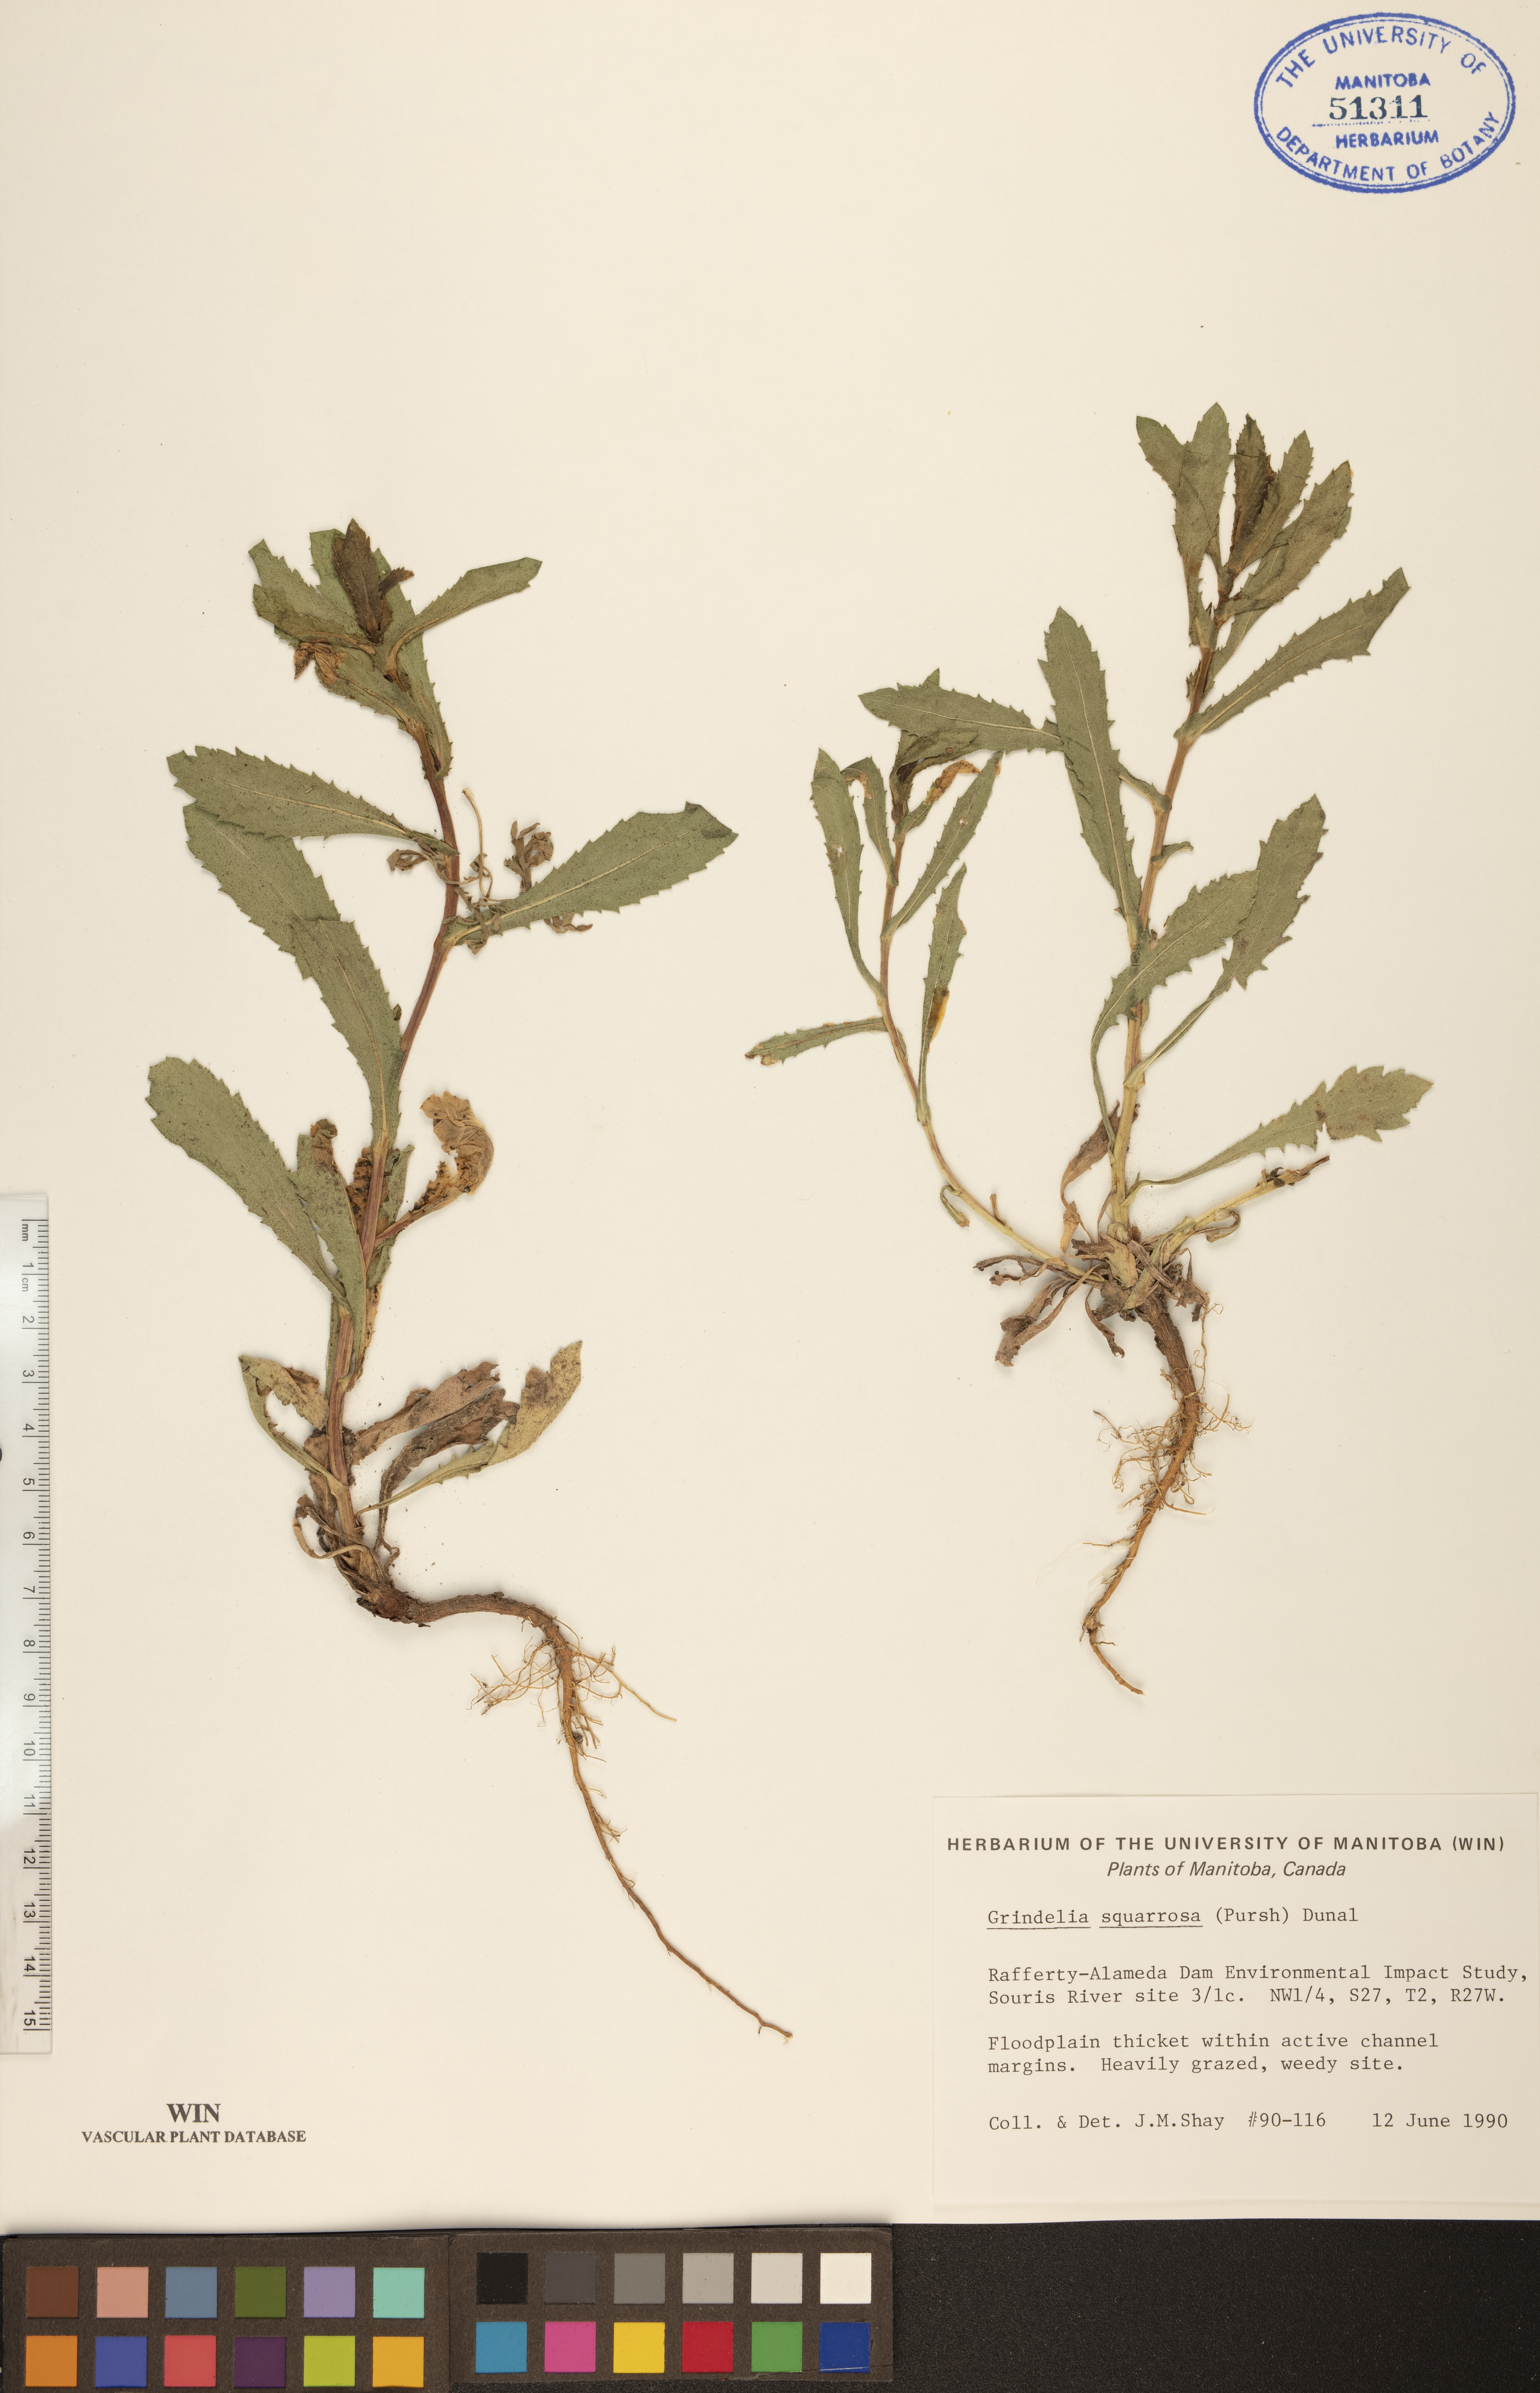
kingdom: Plantae
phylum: Tracheophyta
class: Magnoliopsida
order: Asterales
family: Asteraceae
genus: Grindelia
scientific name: Grindelia squarrosa
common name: Curly-cup gumweed
